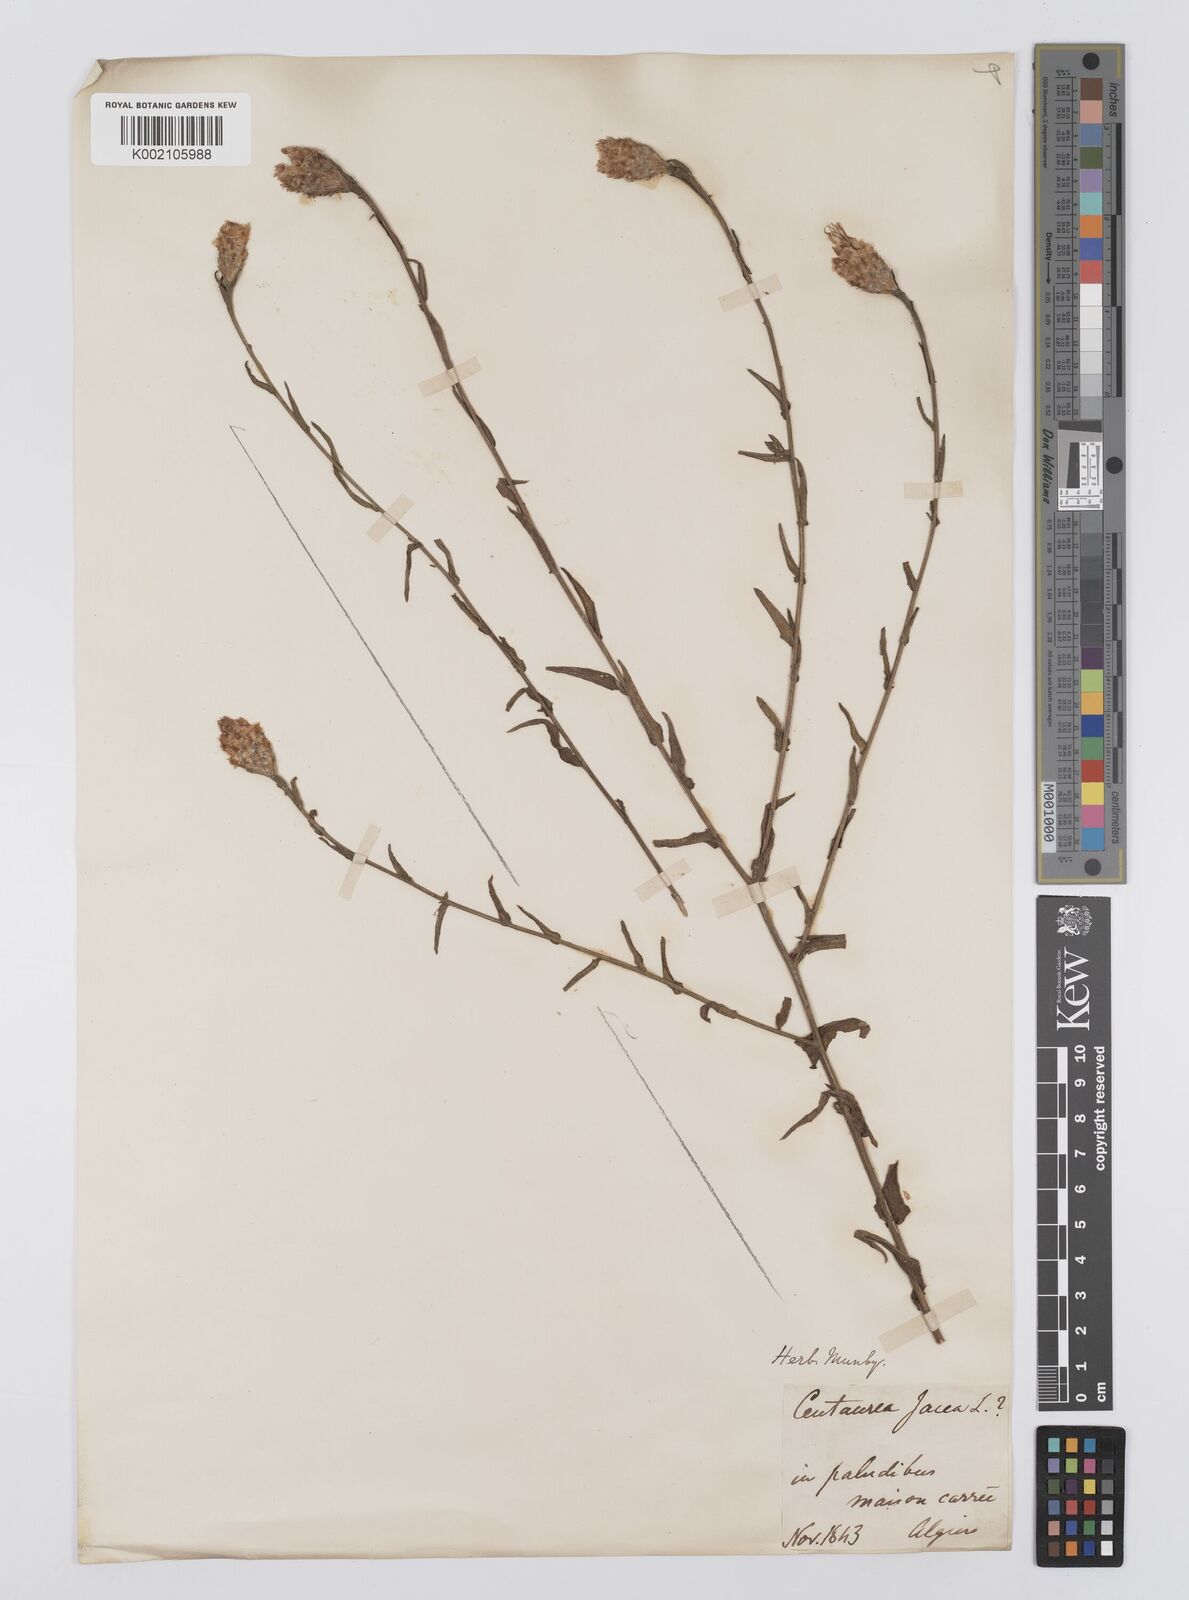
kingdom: Plantae
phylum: Tracheophyta
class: Magnoliopsida
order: Asterales
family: Asteraceae
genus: Centaurea
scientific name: Centaurea ropalon
